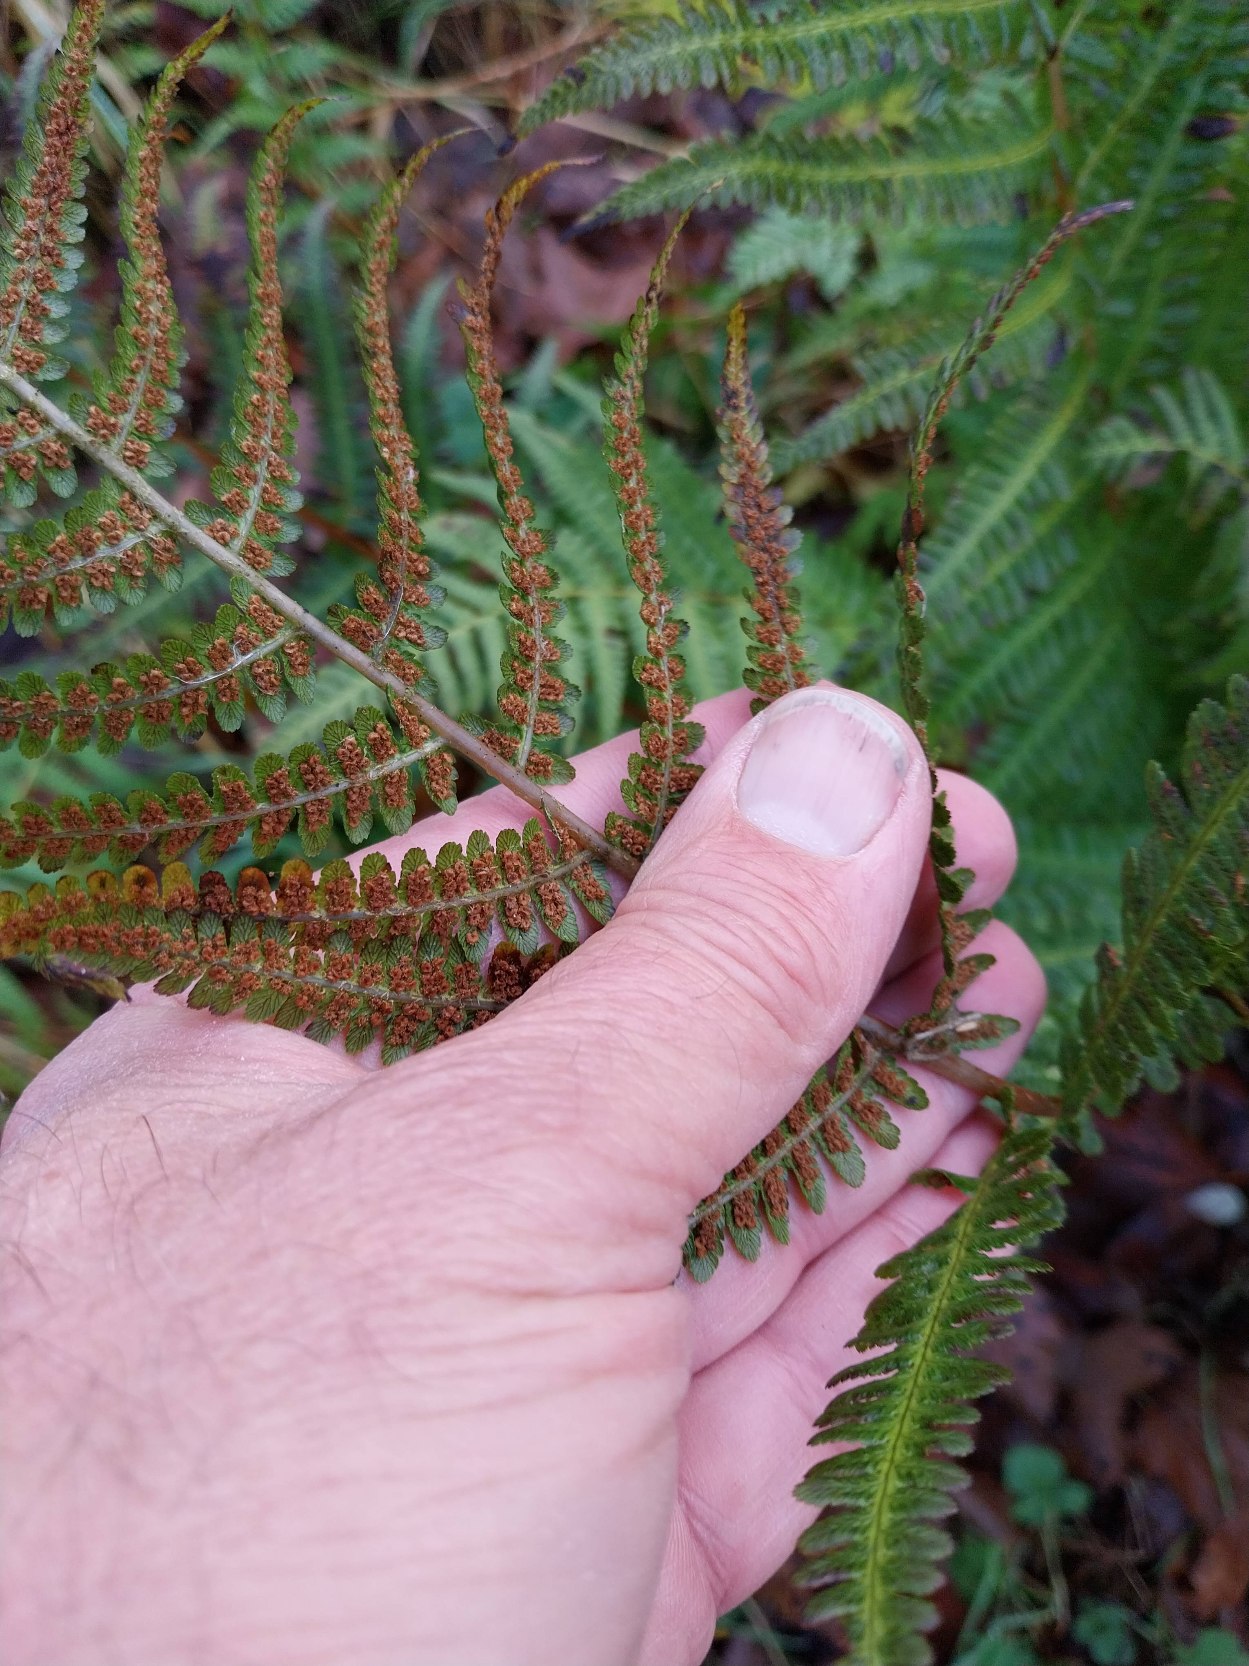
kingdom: Plantae
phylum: Tracheophyta
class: Polypodiopsida
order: Polypodiales
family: Dryopteridaceae
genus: Dryopteris
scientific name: Dryopteris filix-mas
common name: Almindelig mangeløv
